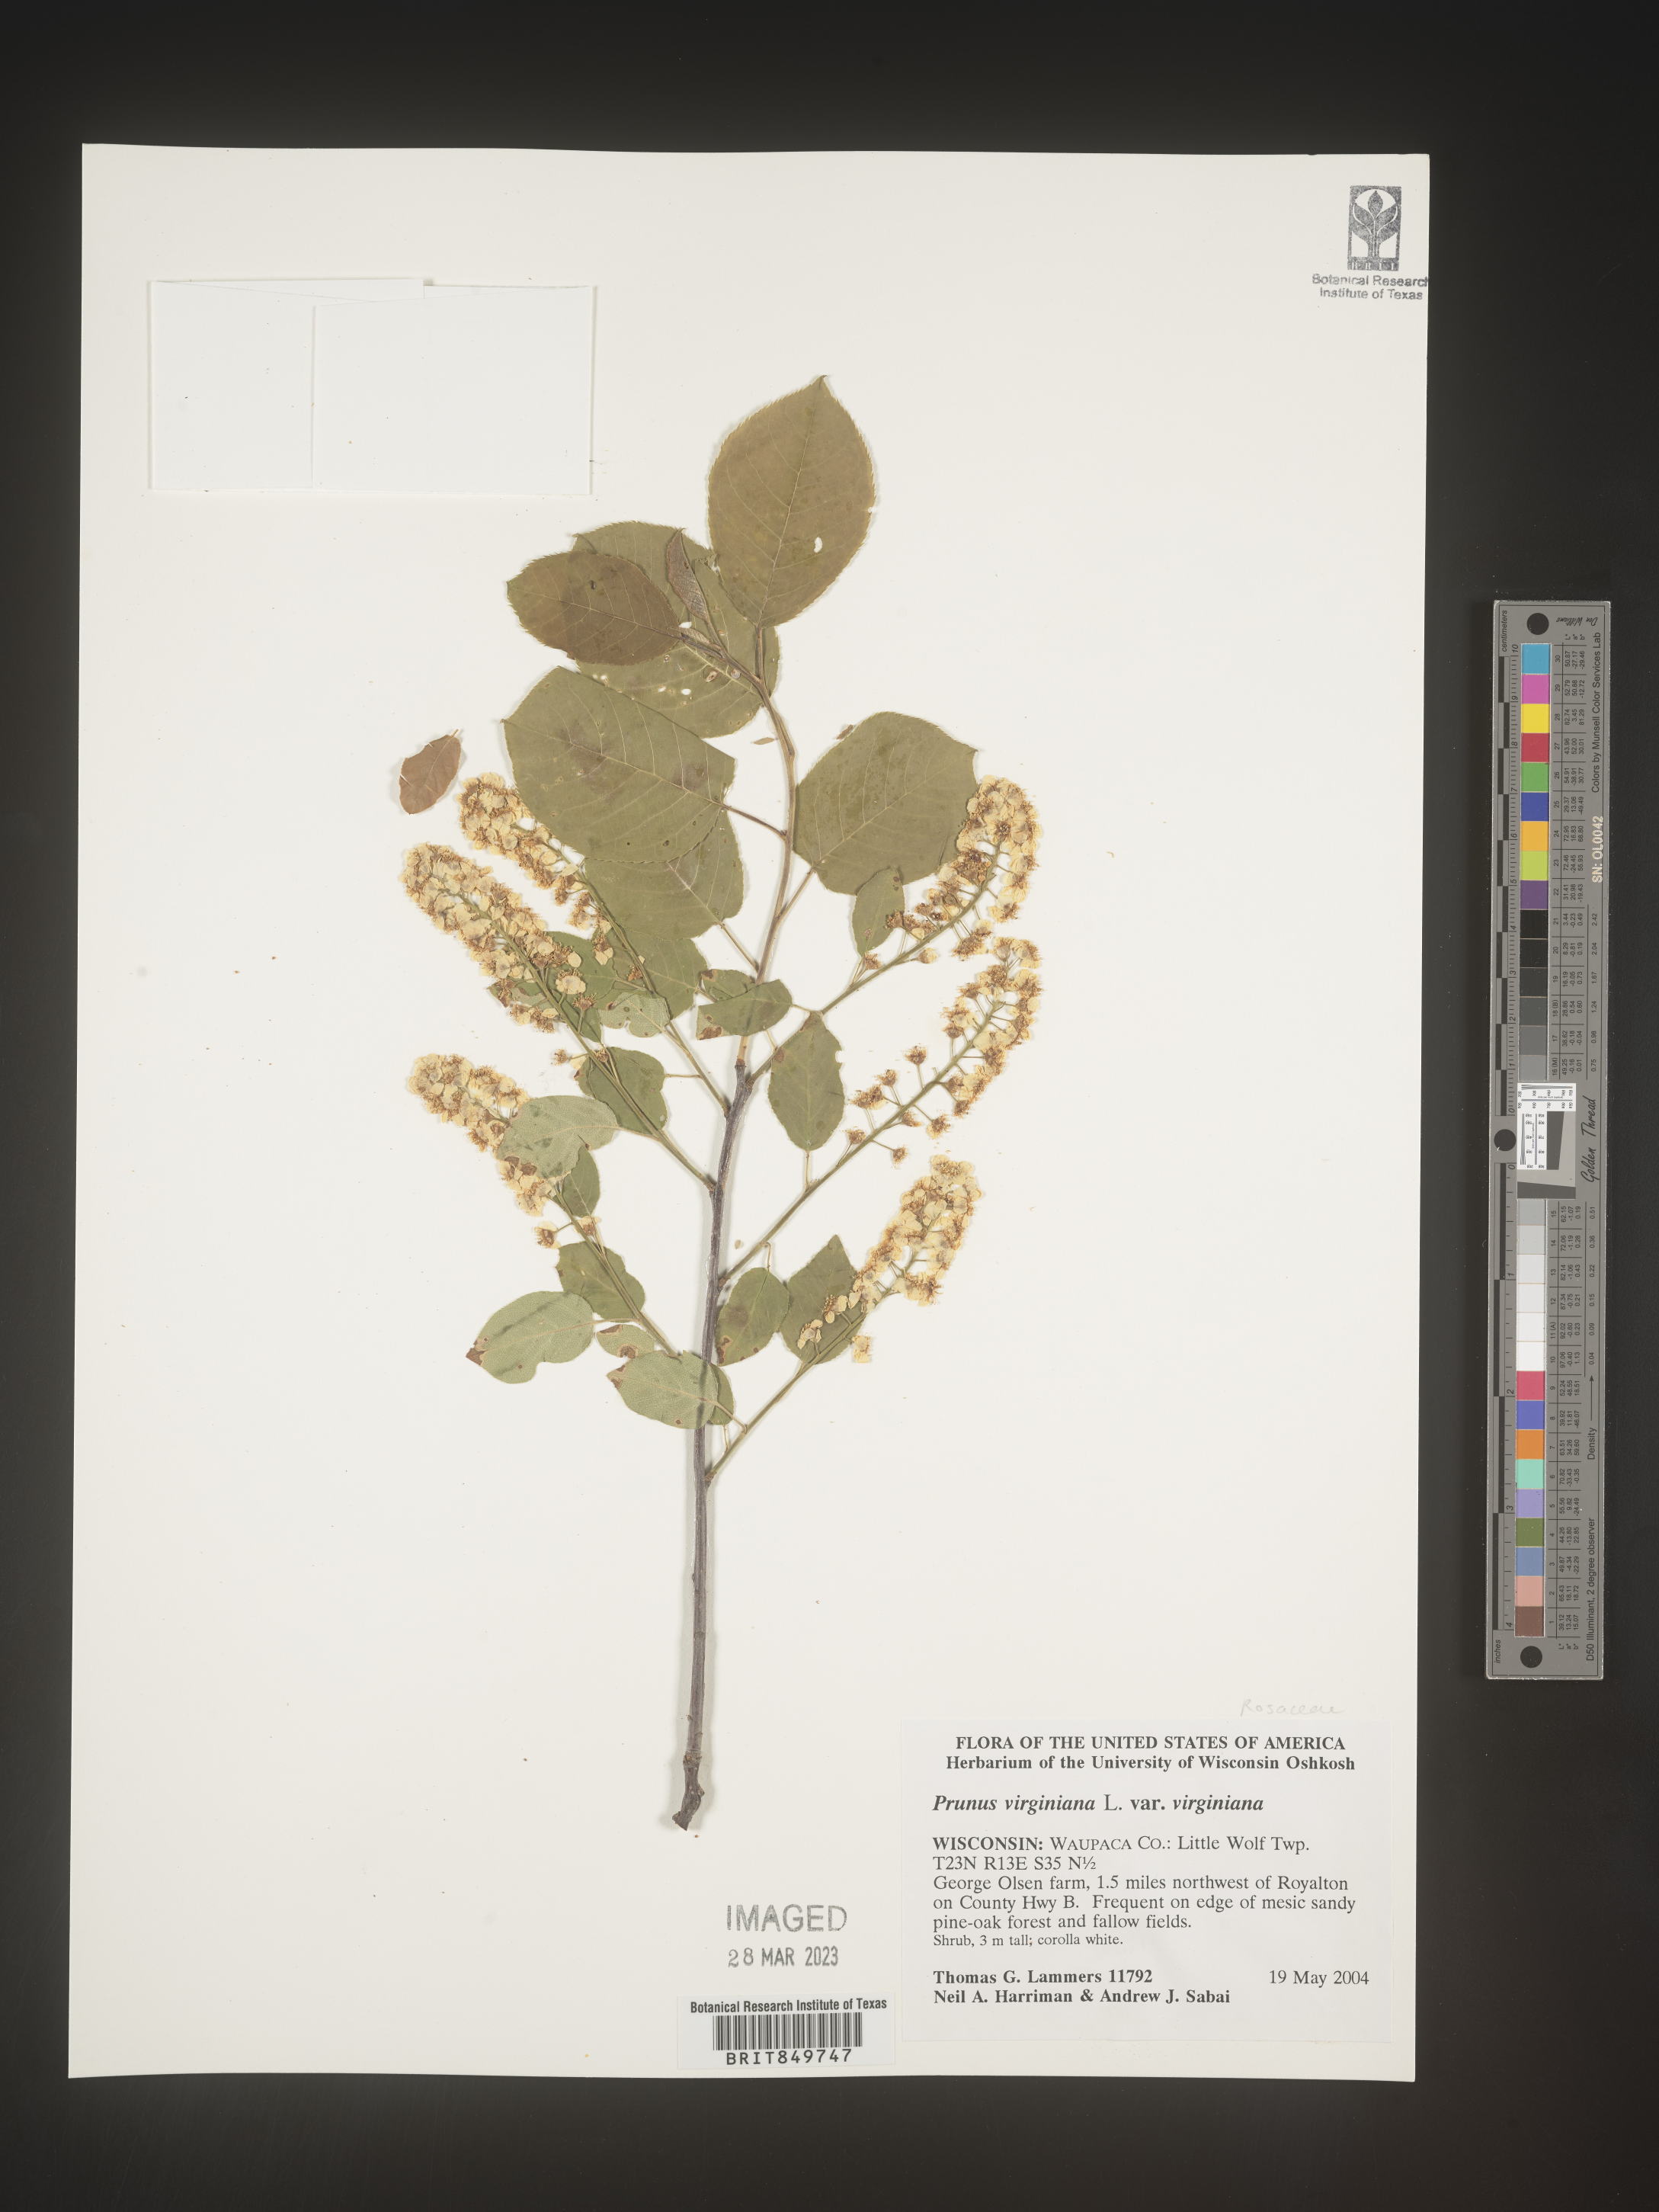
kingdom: Plantae
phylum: Tracheophyta
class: Magnoliopsida
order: Rosales
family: Rosaceae
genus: Prunus
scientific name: Prunus virginiana
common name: Chokecherry
